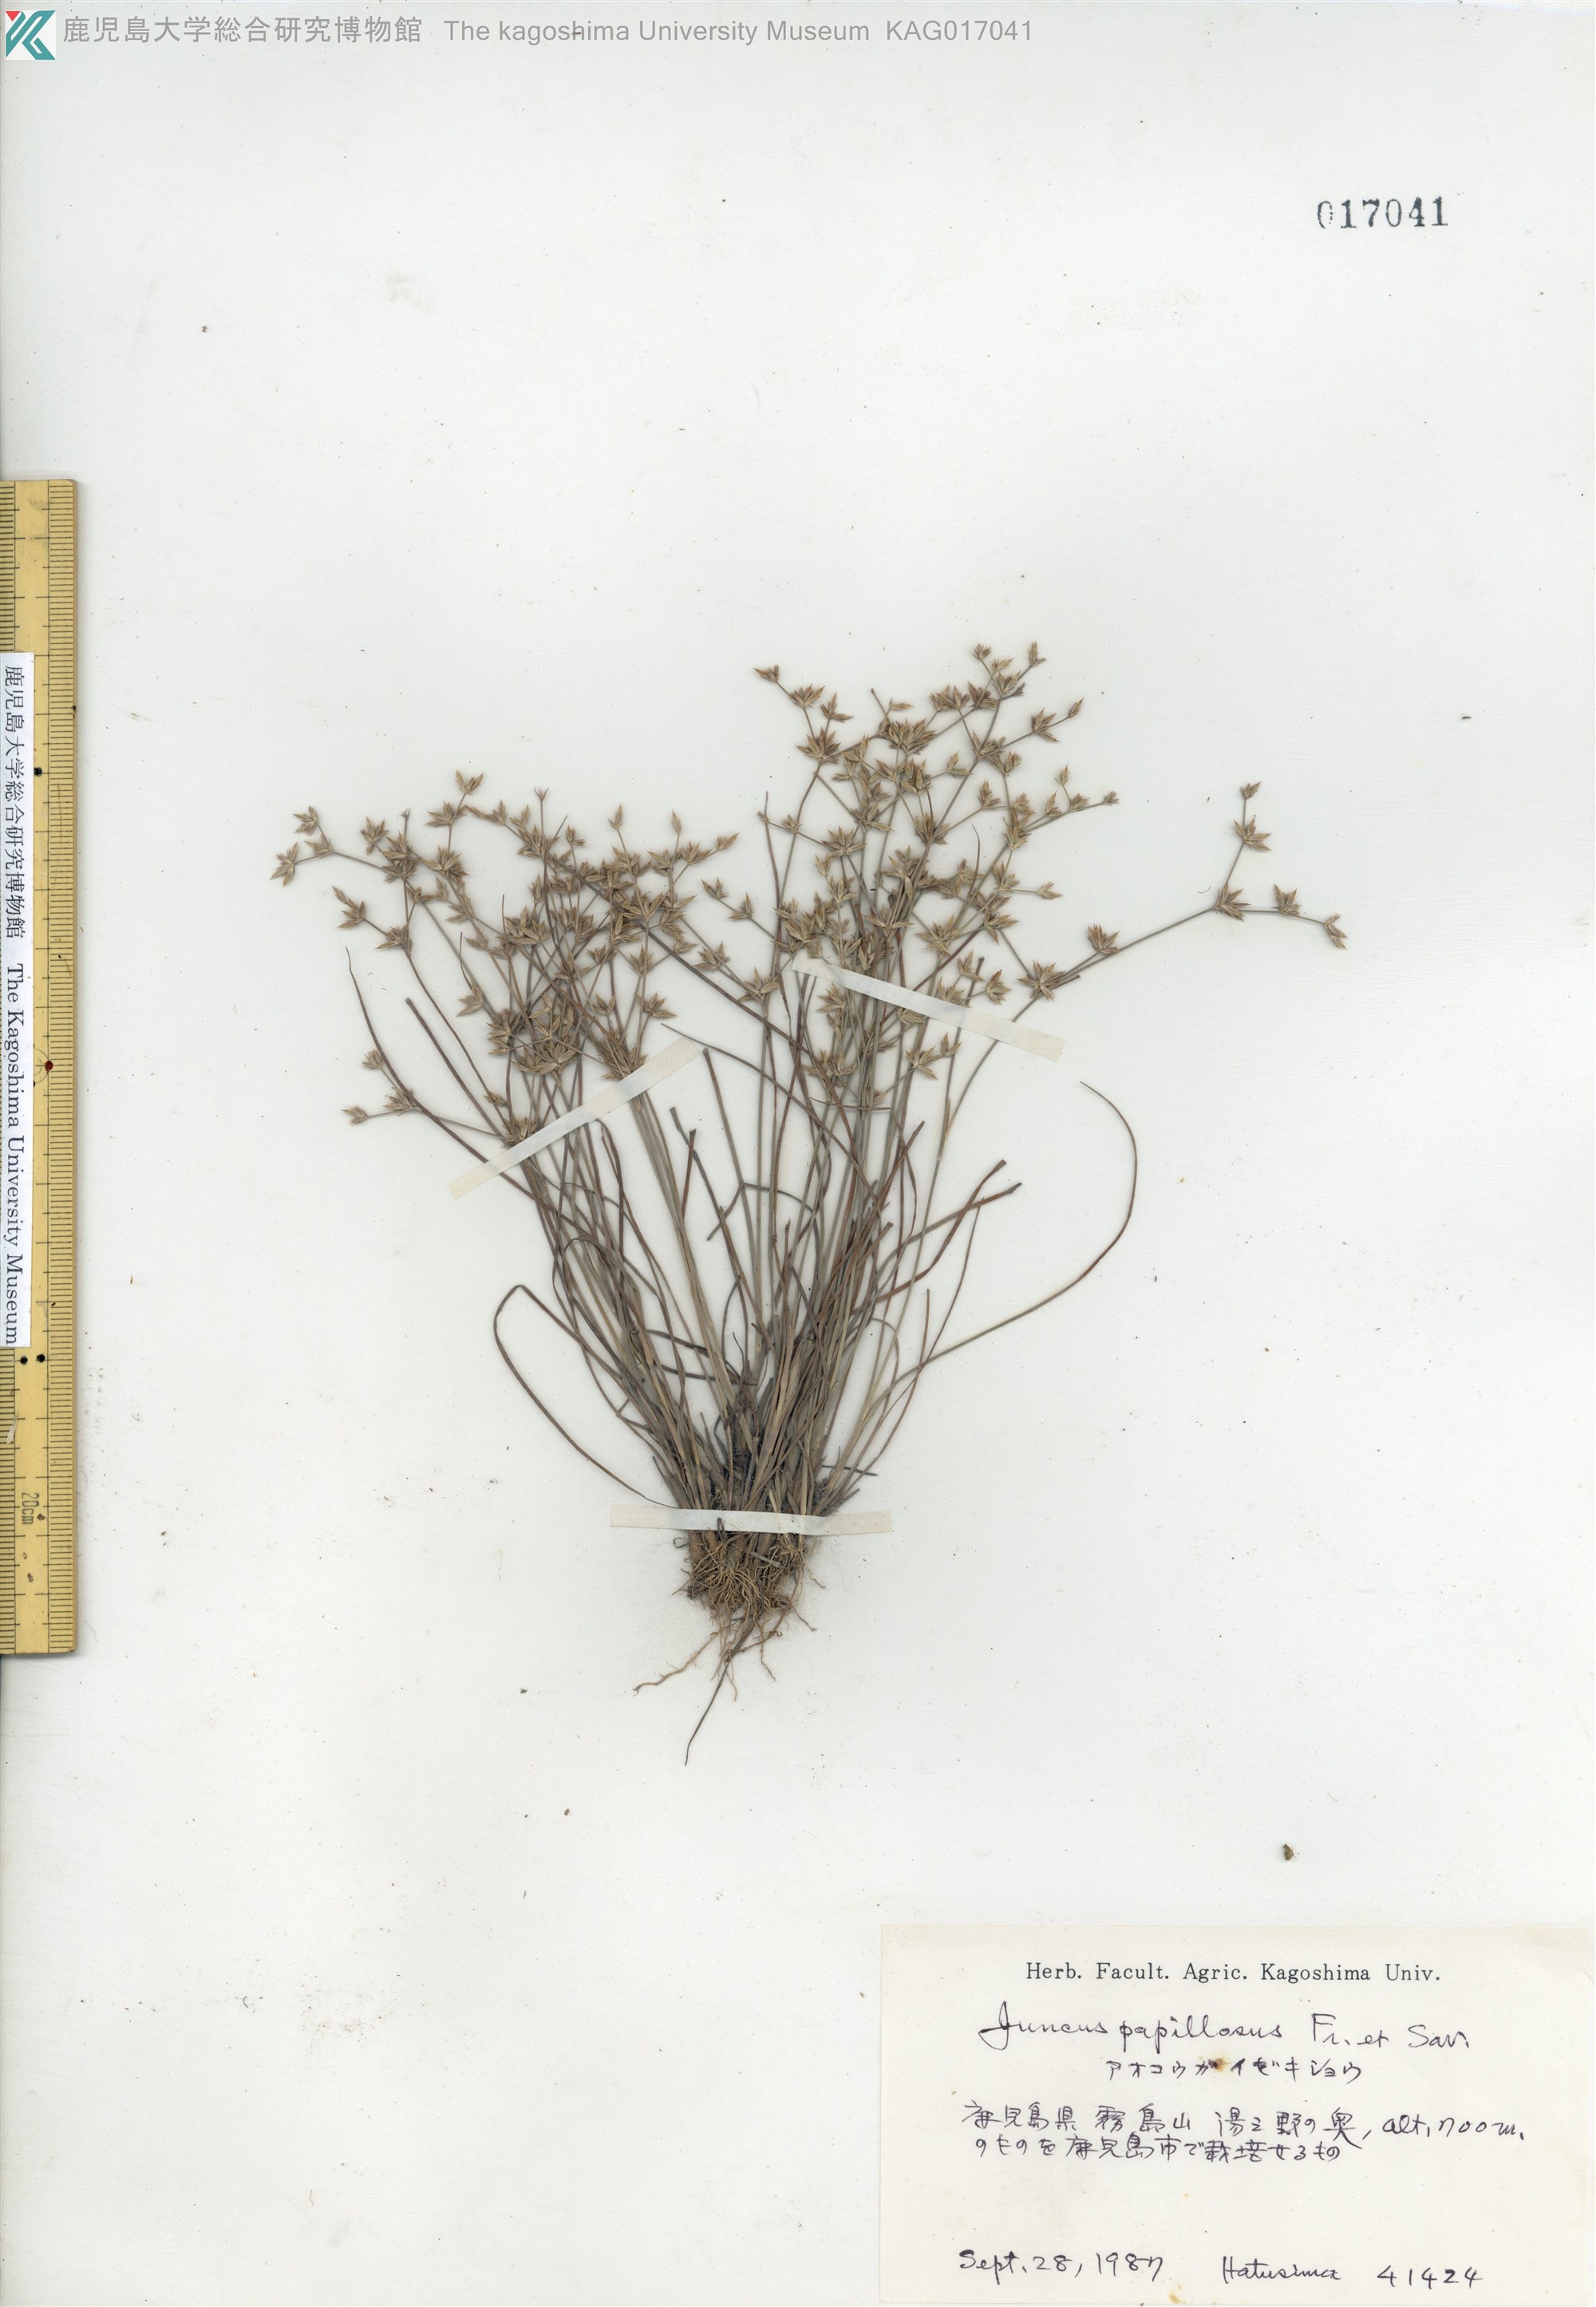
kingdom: Plantae
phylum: Tracheophyta
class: Liliopsida
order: Poales
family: Juncaceae
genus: Juncus
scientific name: Juncus papillosus
